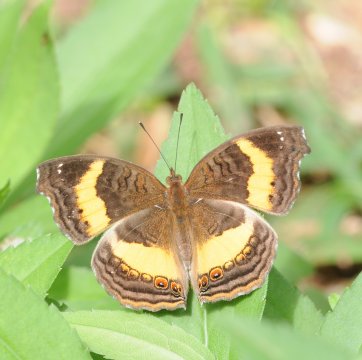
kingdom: Animalia
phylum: Arthropoda
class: Insecta
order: Lepidoptera
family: Nymphalidae
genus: Junonia
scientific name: Junonia terea
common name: Soldier Pansy
